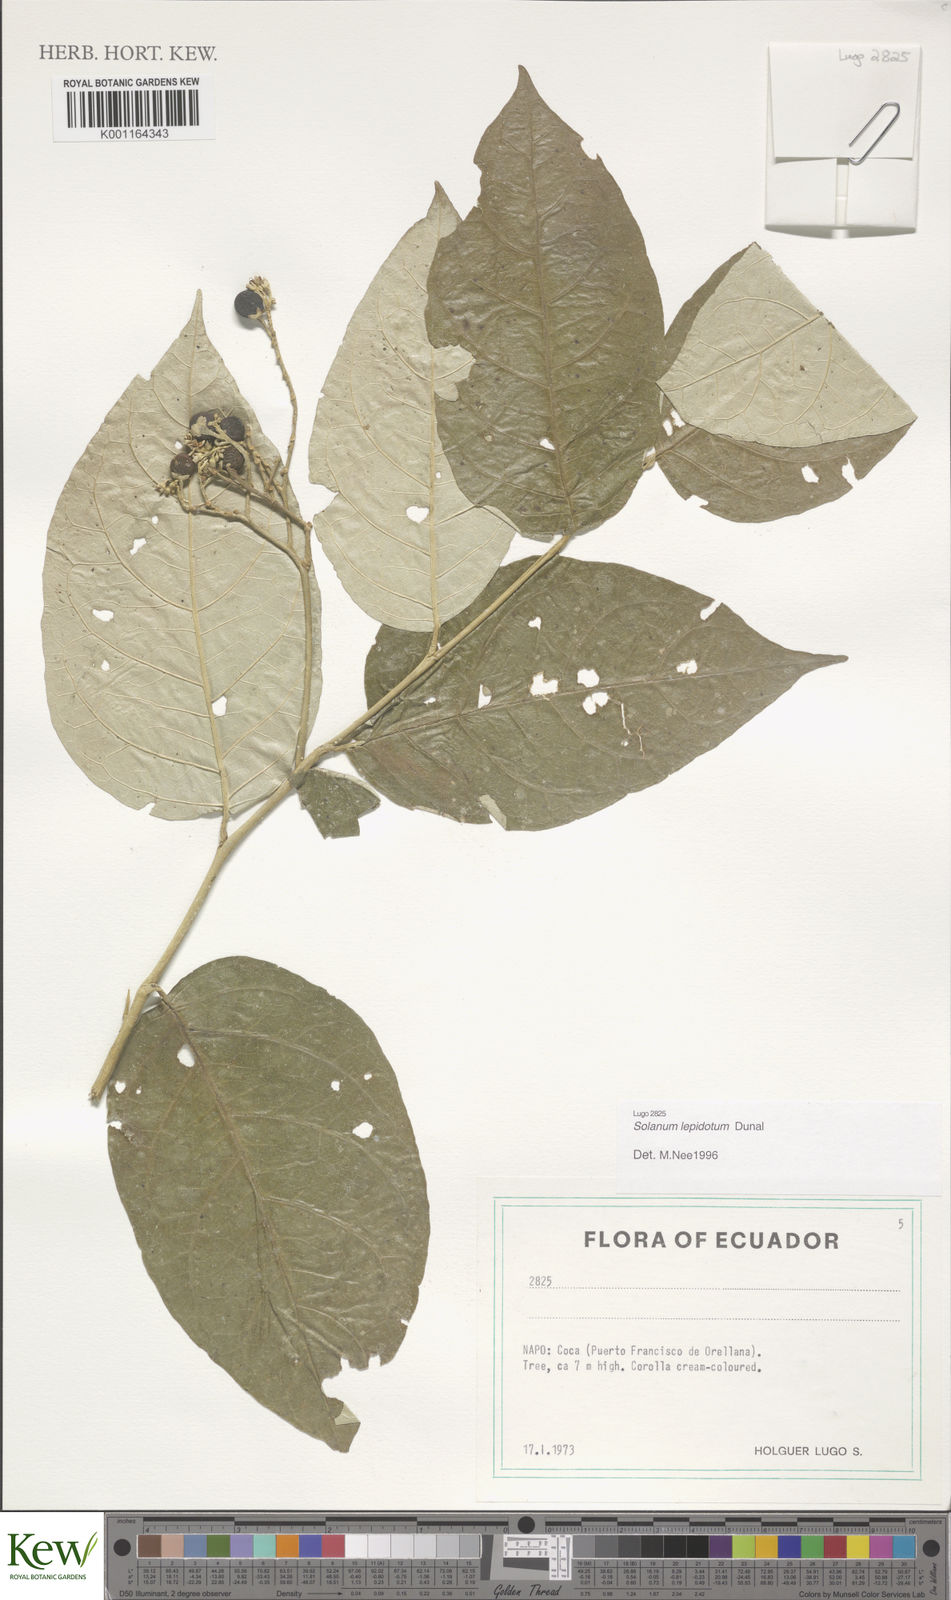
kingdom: Plantae
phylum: Tracheophyta
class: Magnoliopsida
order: Solanales
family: Solanaceae
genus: Solanum
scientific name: Solanum lepidotum
